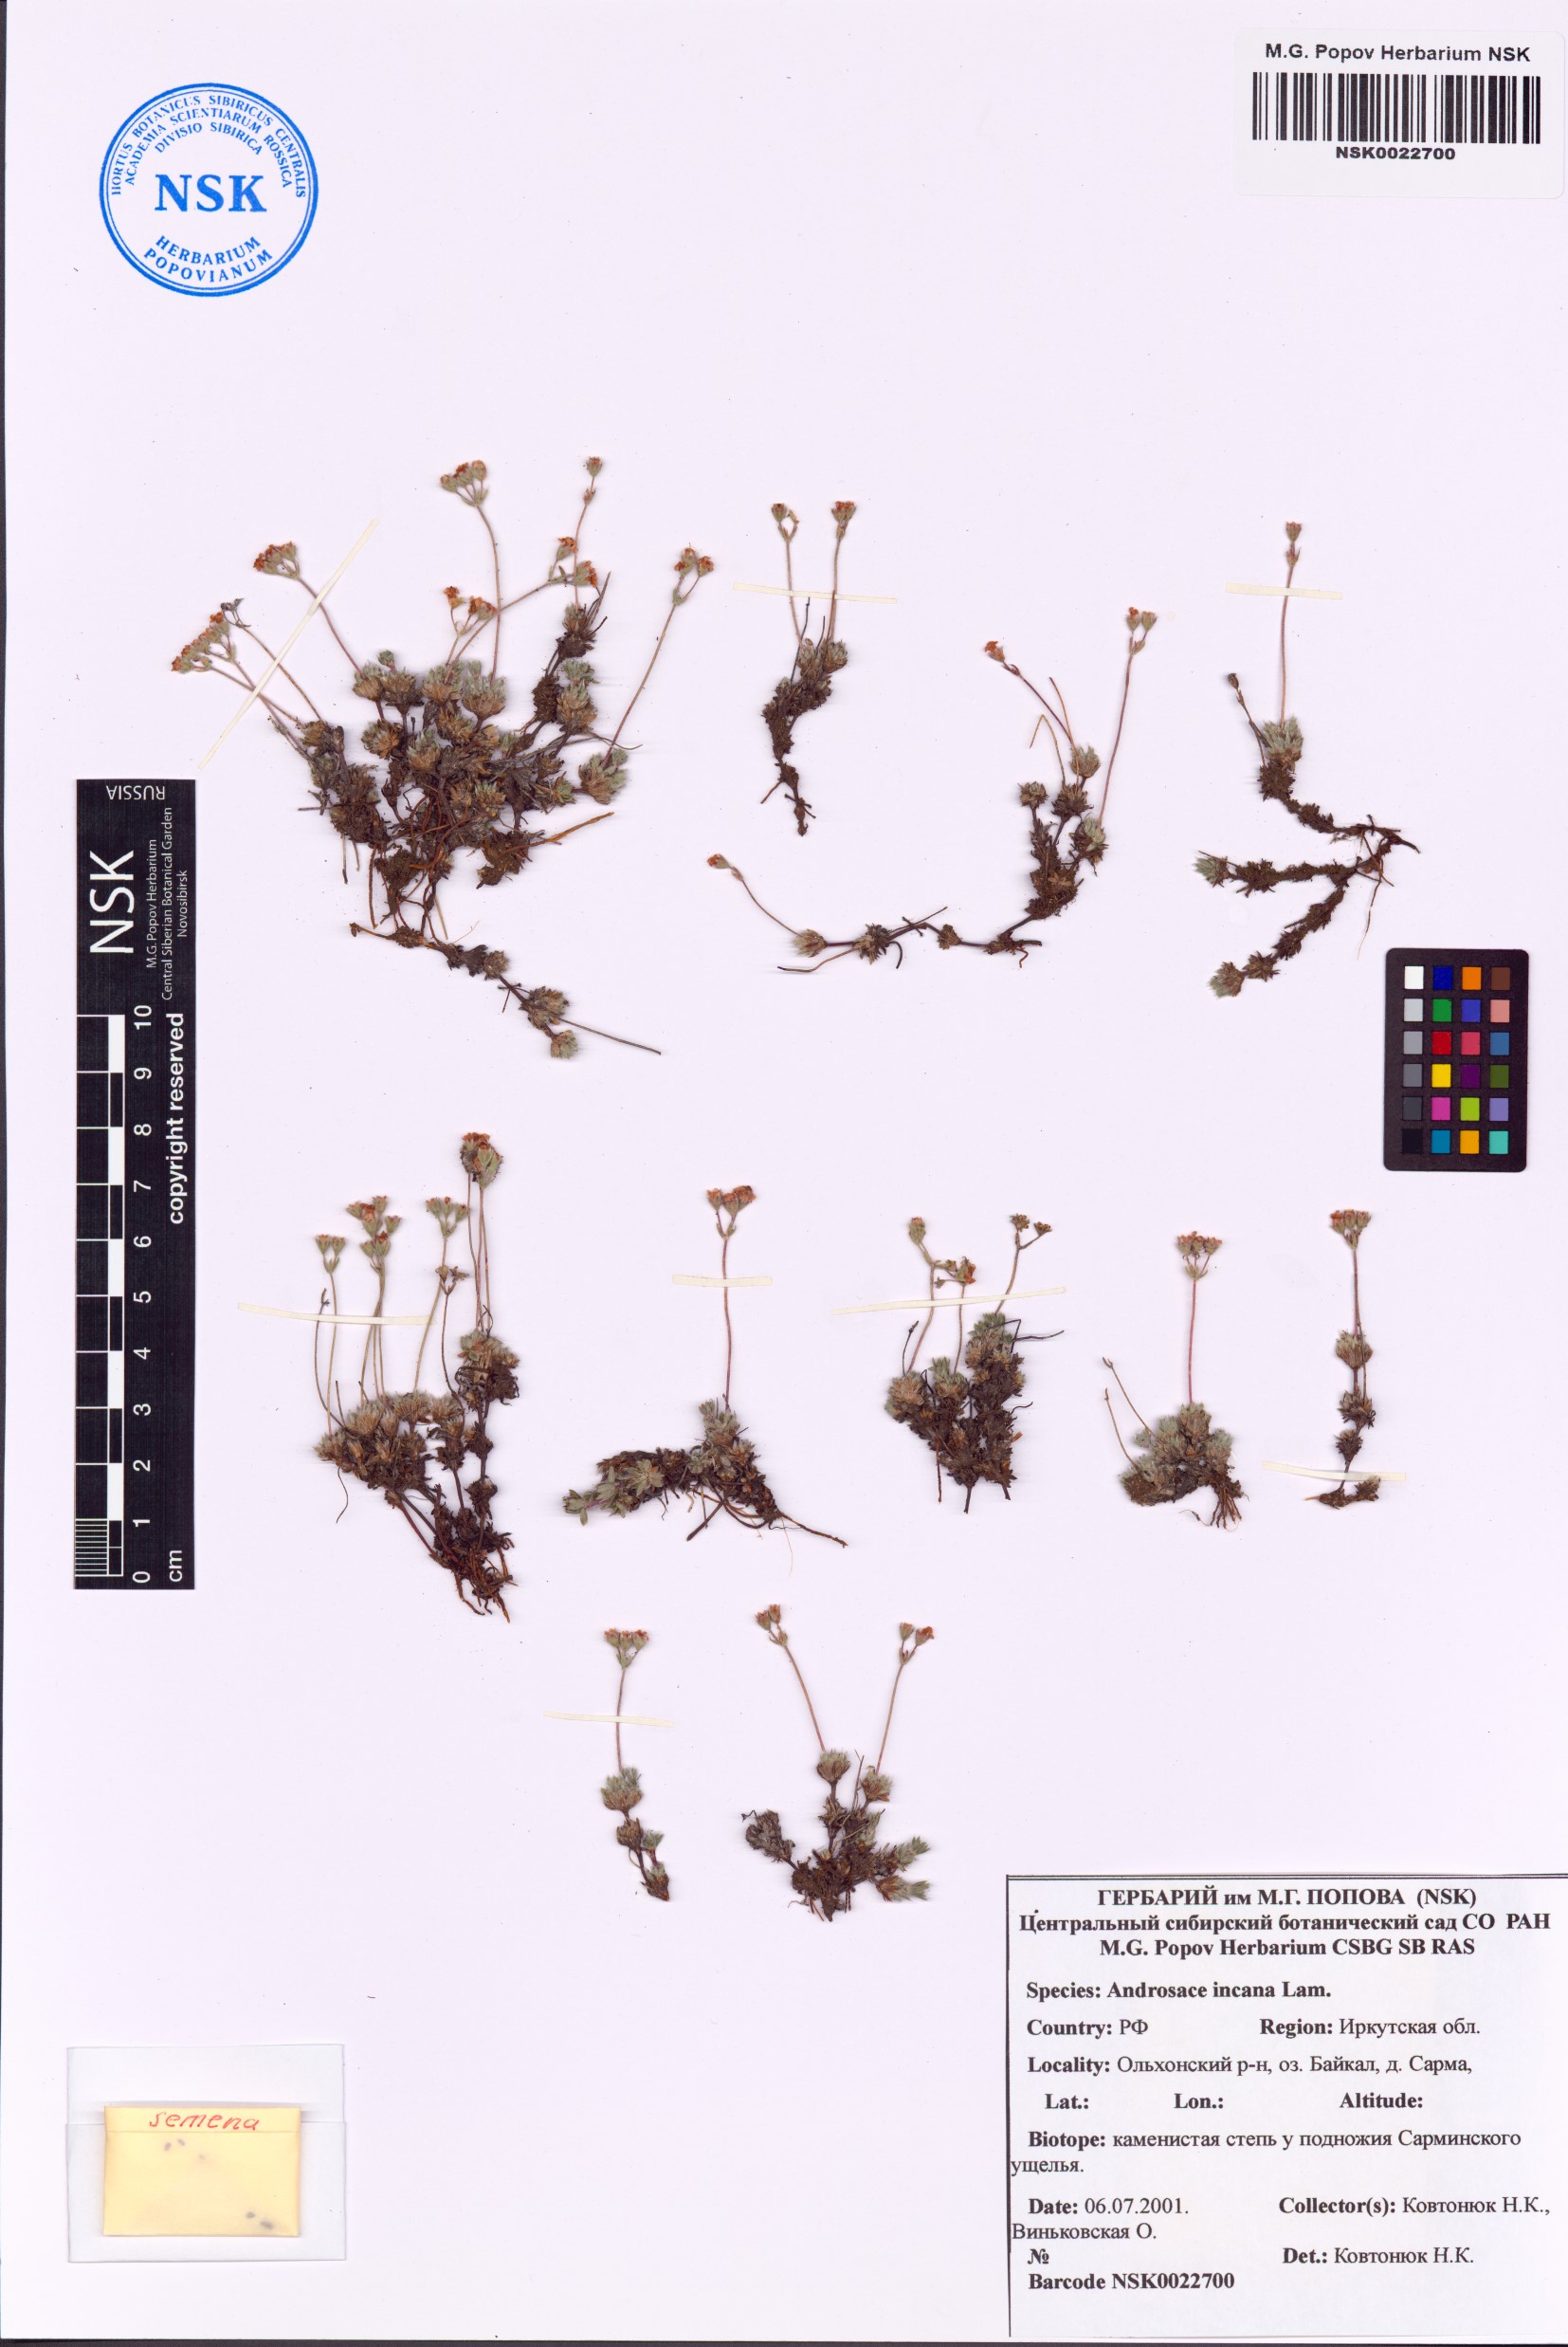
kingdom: Plantae
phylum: Tracheophyta
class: Magnoliopsida
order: Ericales
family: Primulaceae
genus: Androsace
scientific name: Androsace incana
